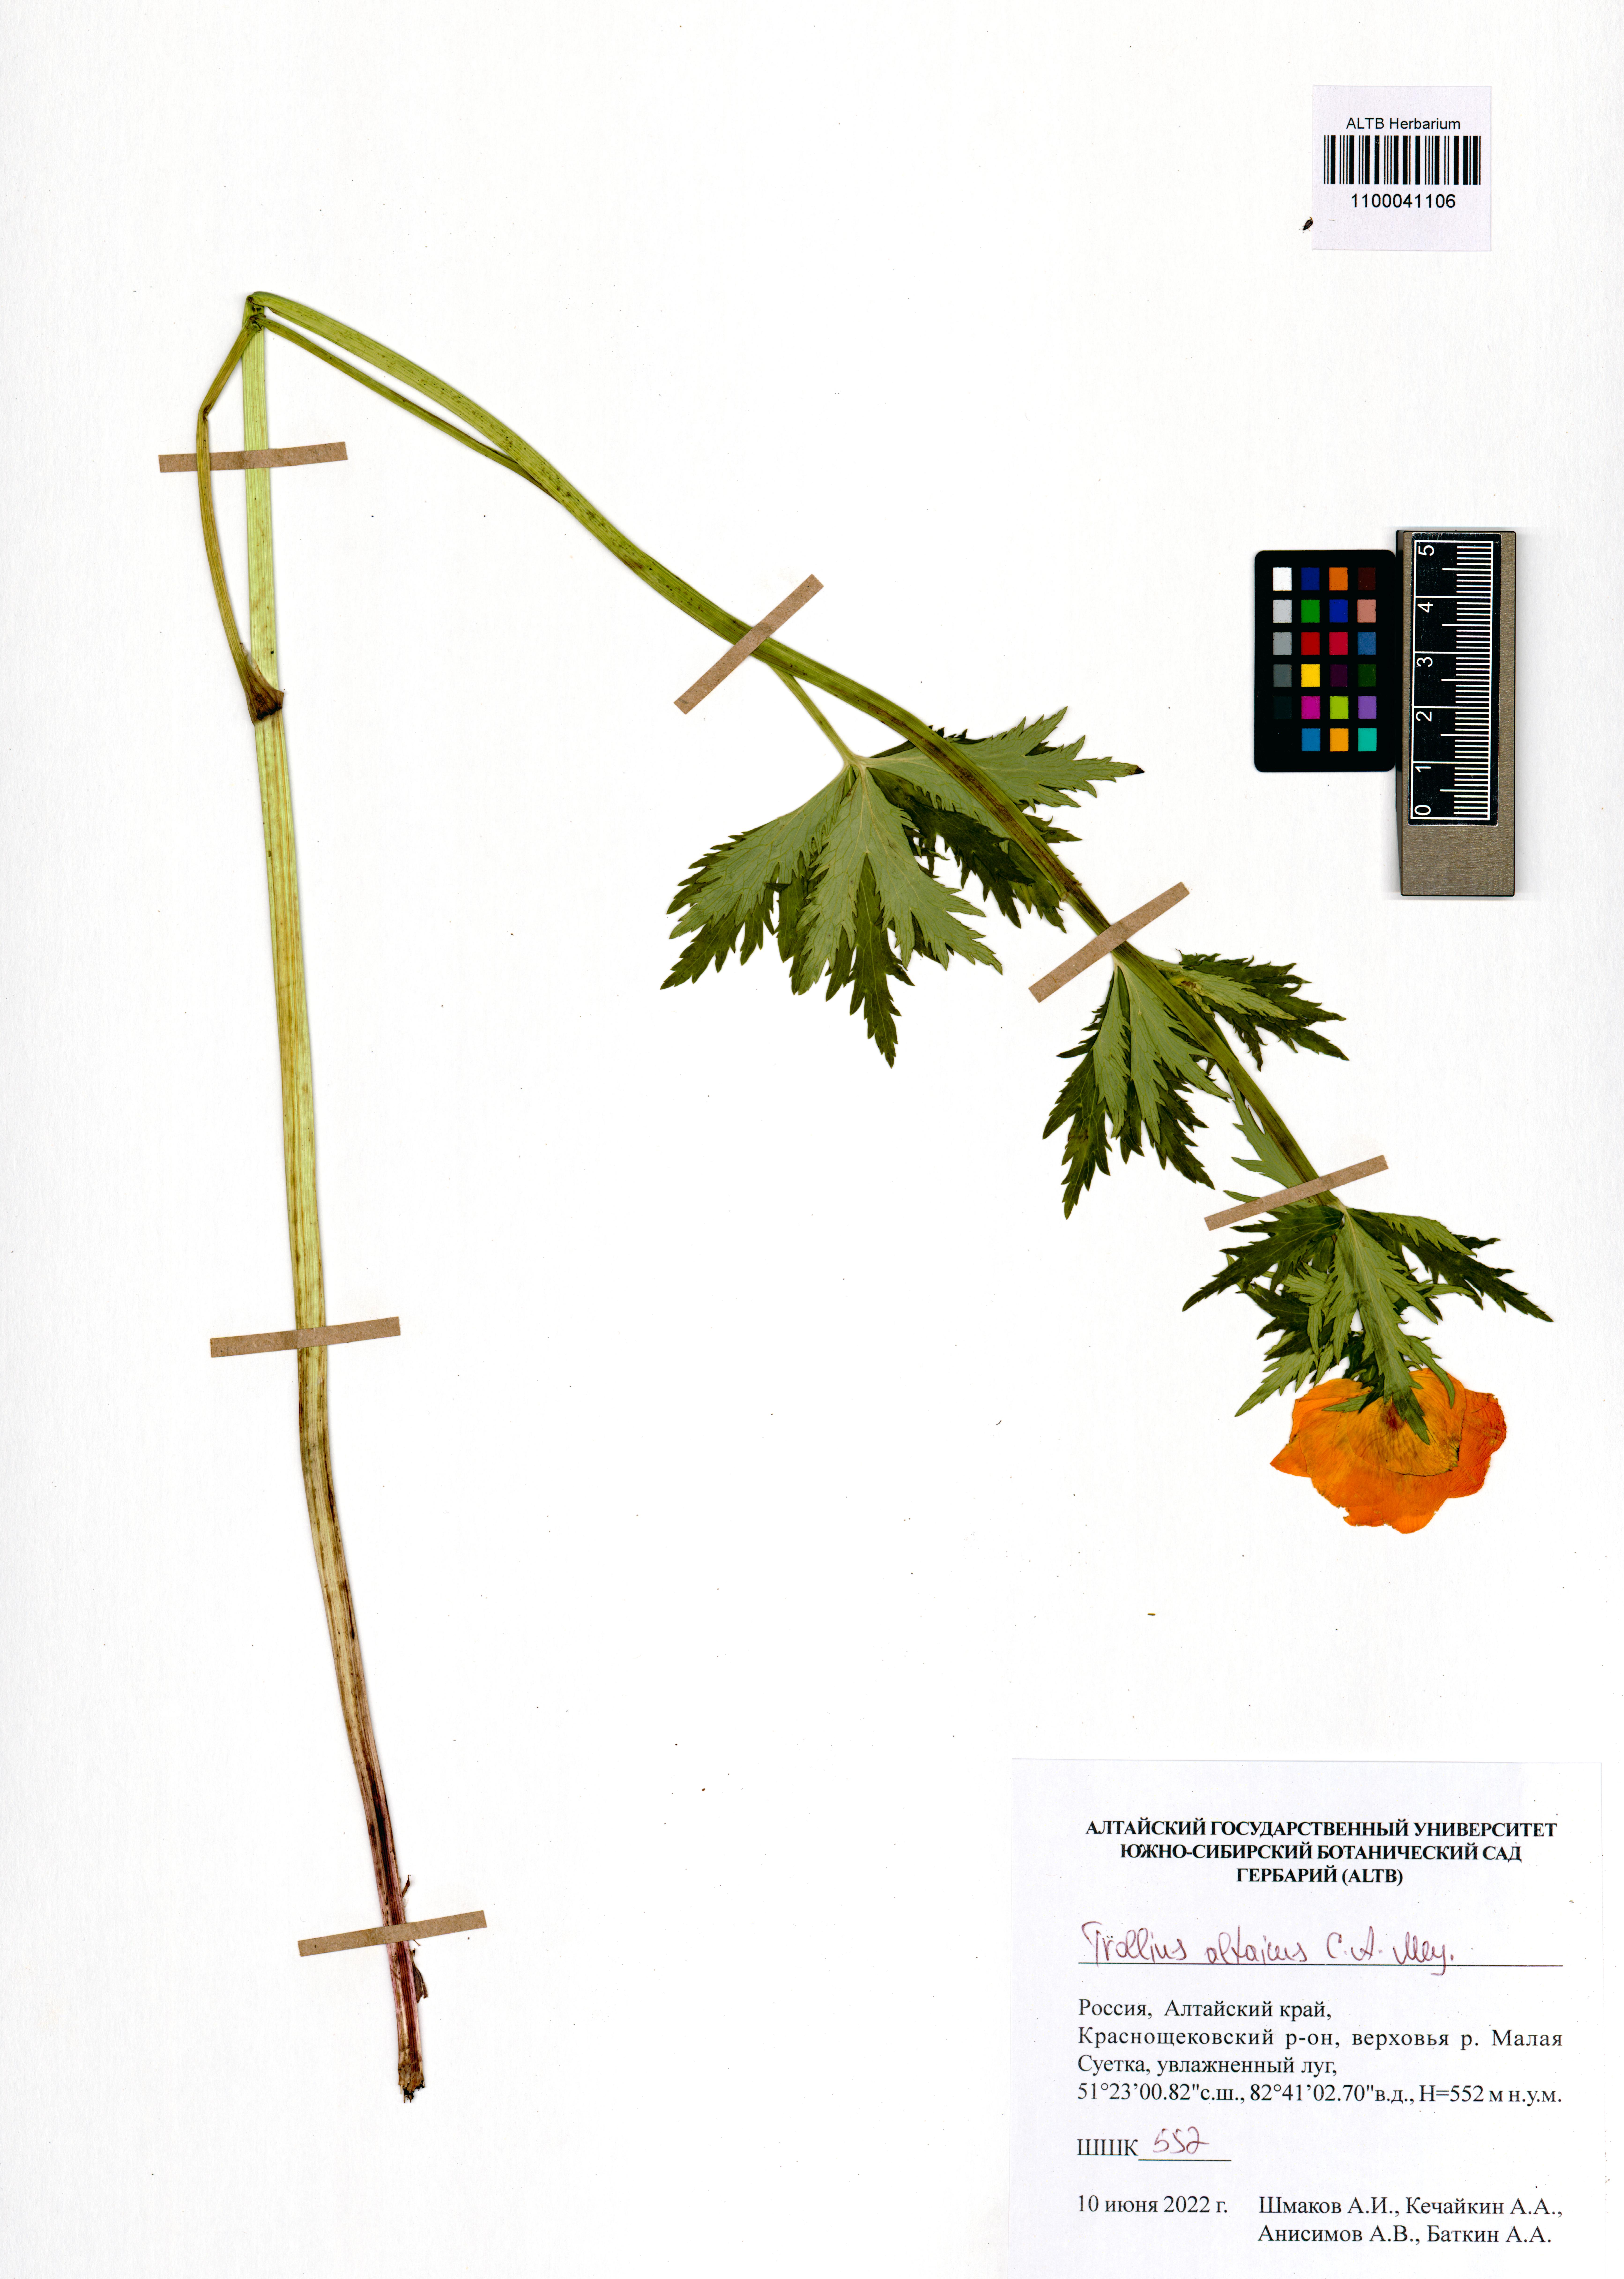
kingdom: Plantae
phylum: Tracheophyta
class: Magnoliopsida
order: Ranunculales
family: Ranunculaceae
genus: Trollius
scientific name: Trollius altaicus
